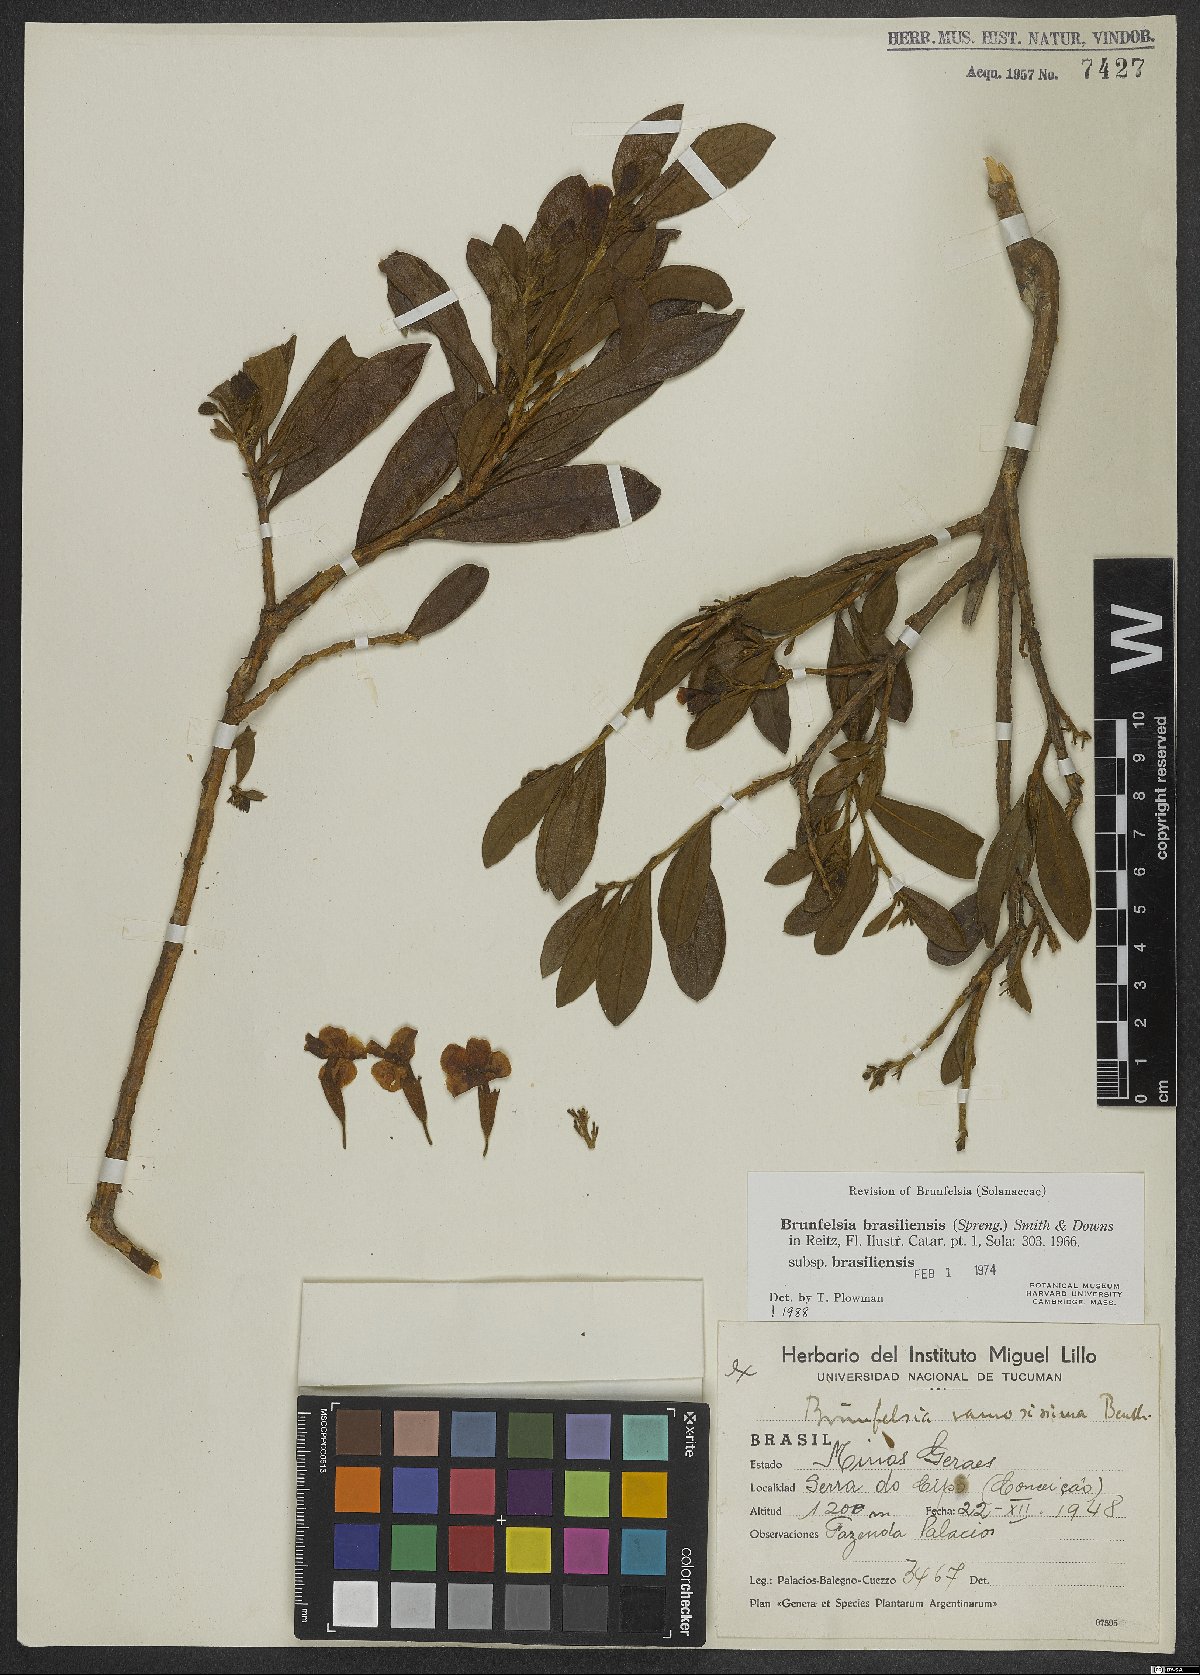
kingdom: Plantae
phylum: Tracheophyta
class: Magnoliopsida
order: Solanales
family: Solanaceae
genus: Brunfelsia
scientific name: Brunfelsia brasiliensis
